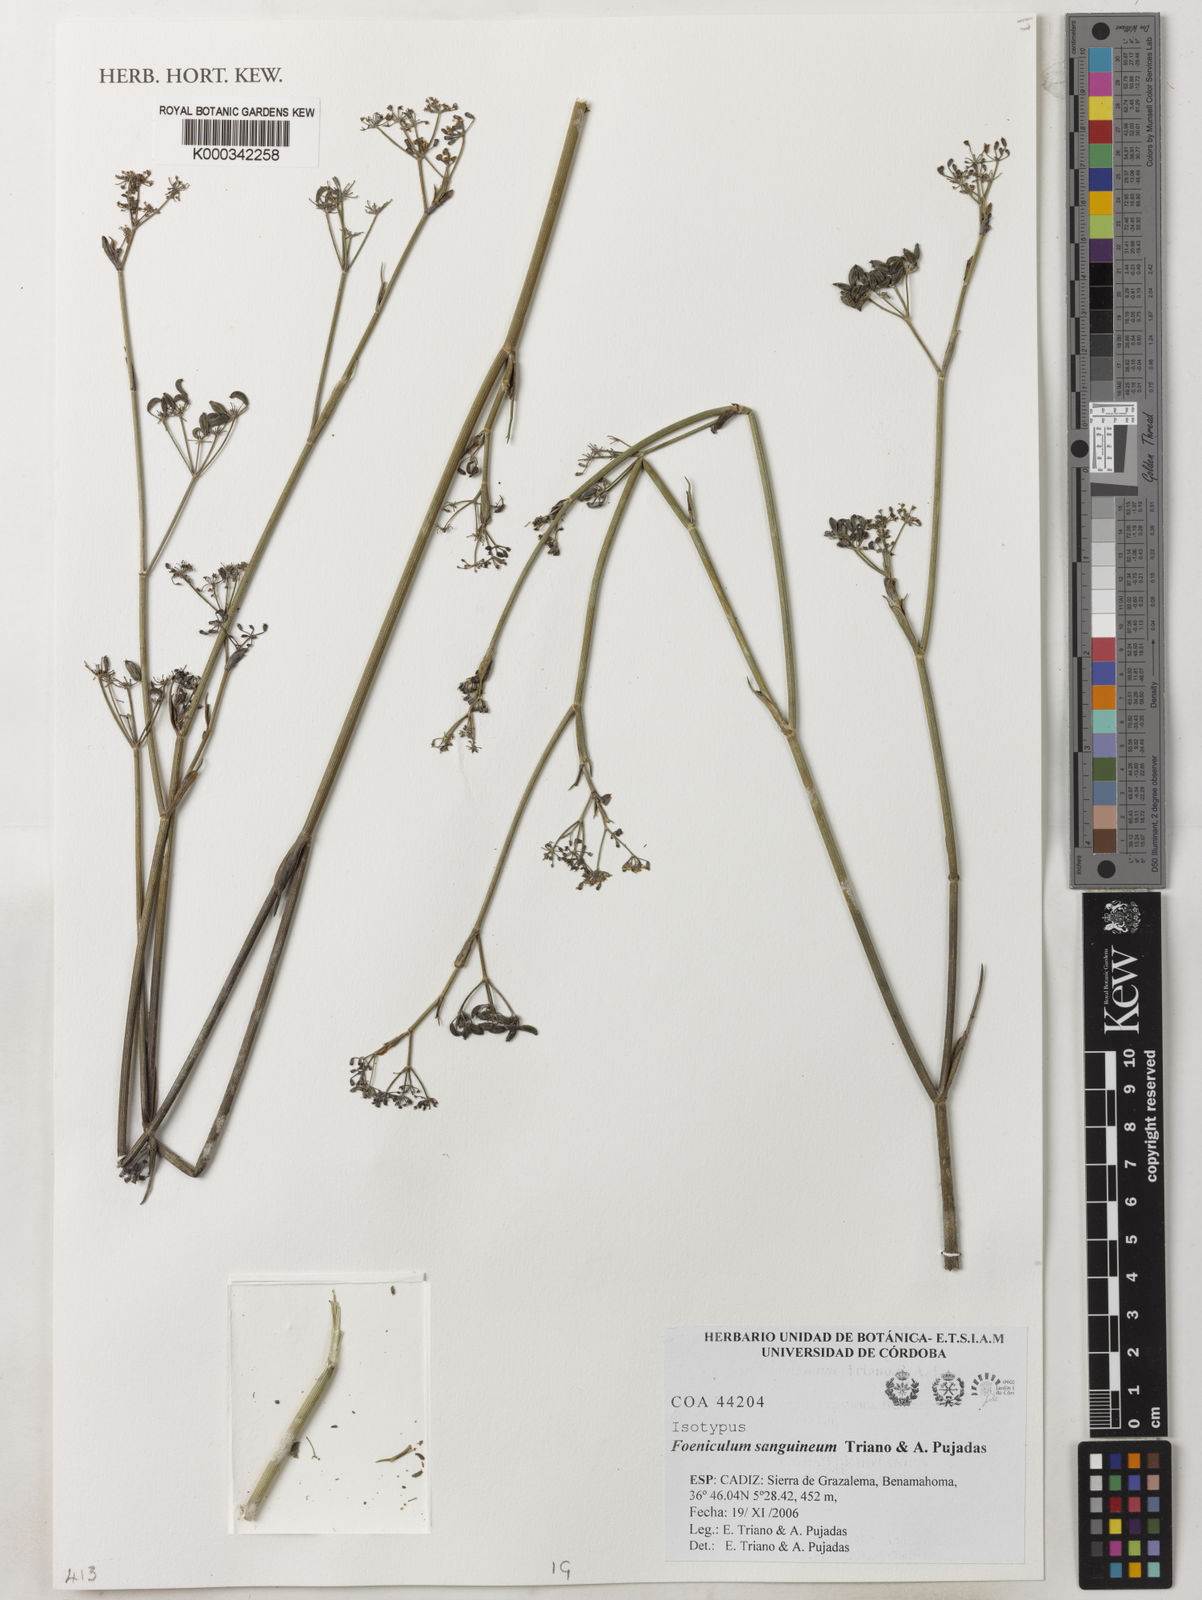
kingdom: Plantae
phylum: Tracheophyta
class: Magnoliopsida
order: Apiales
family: Apiaceae
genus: Foeniculum
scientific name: Foeniculum
